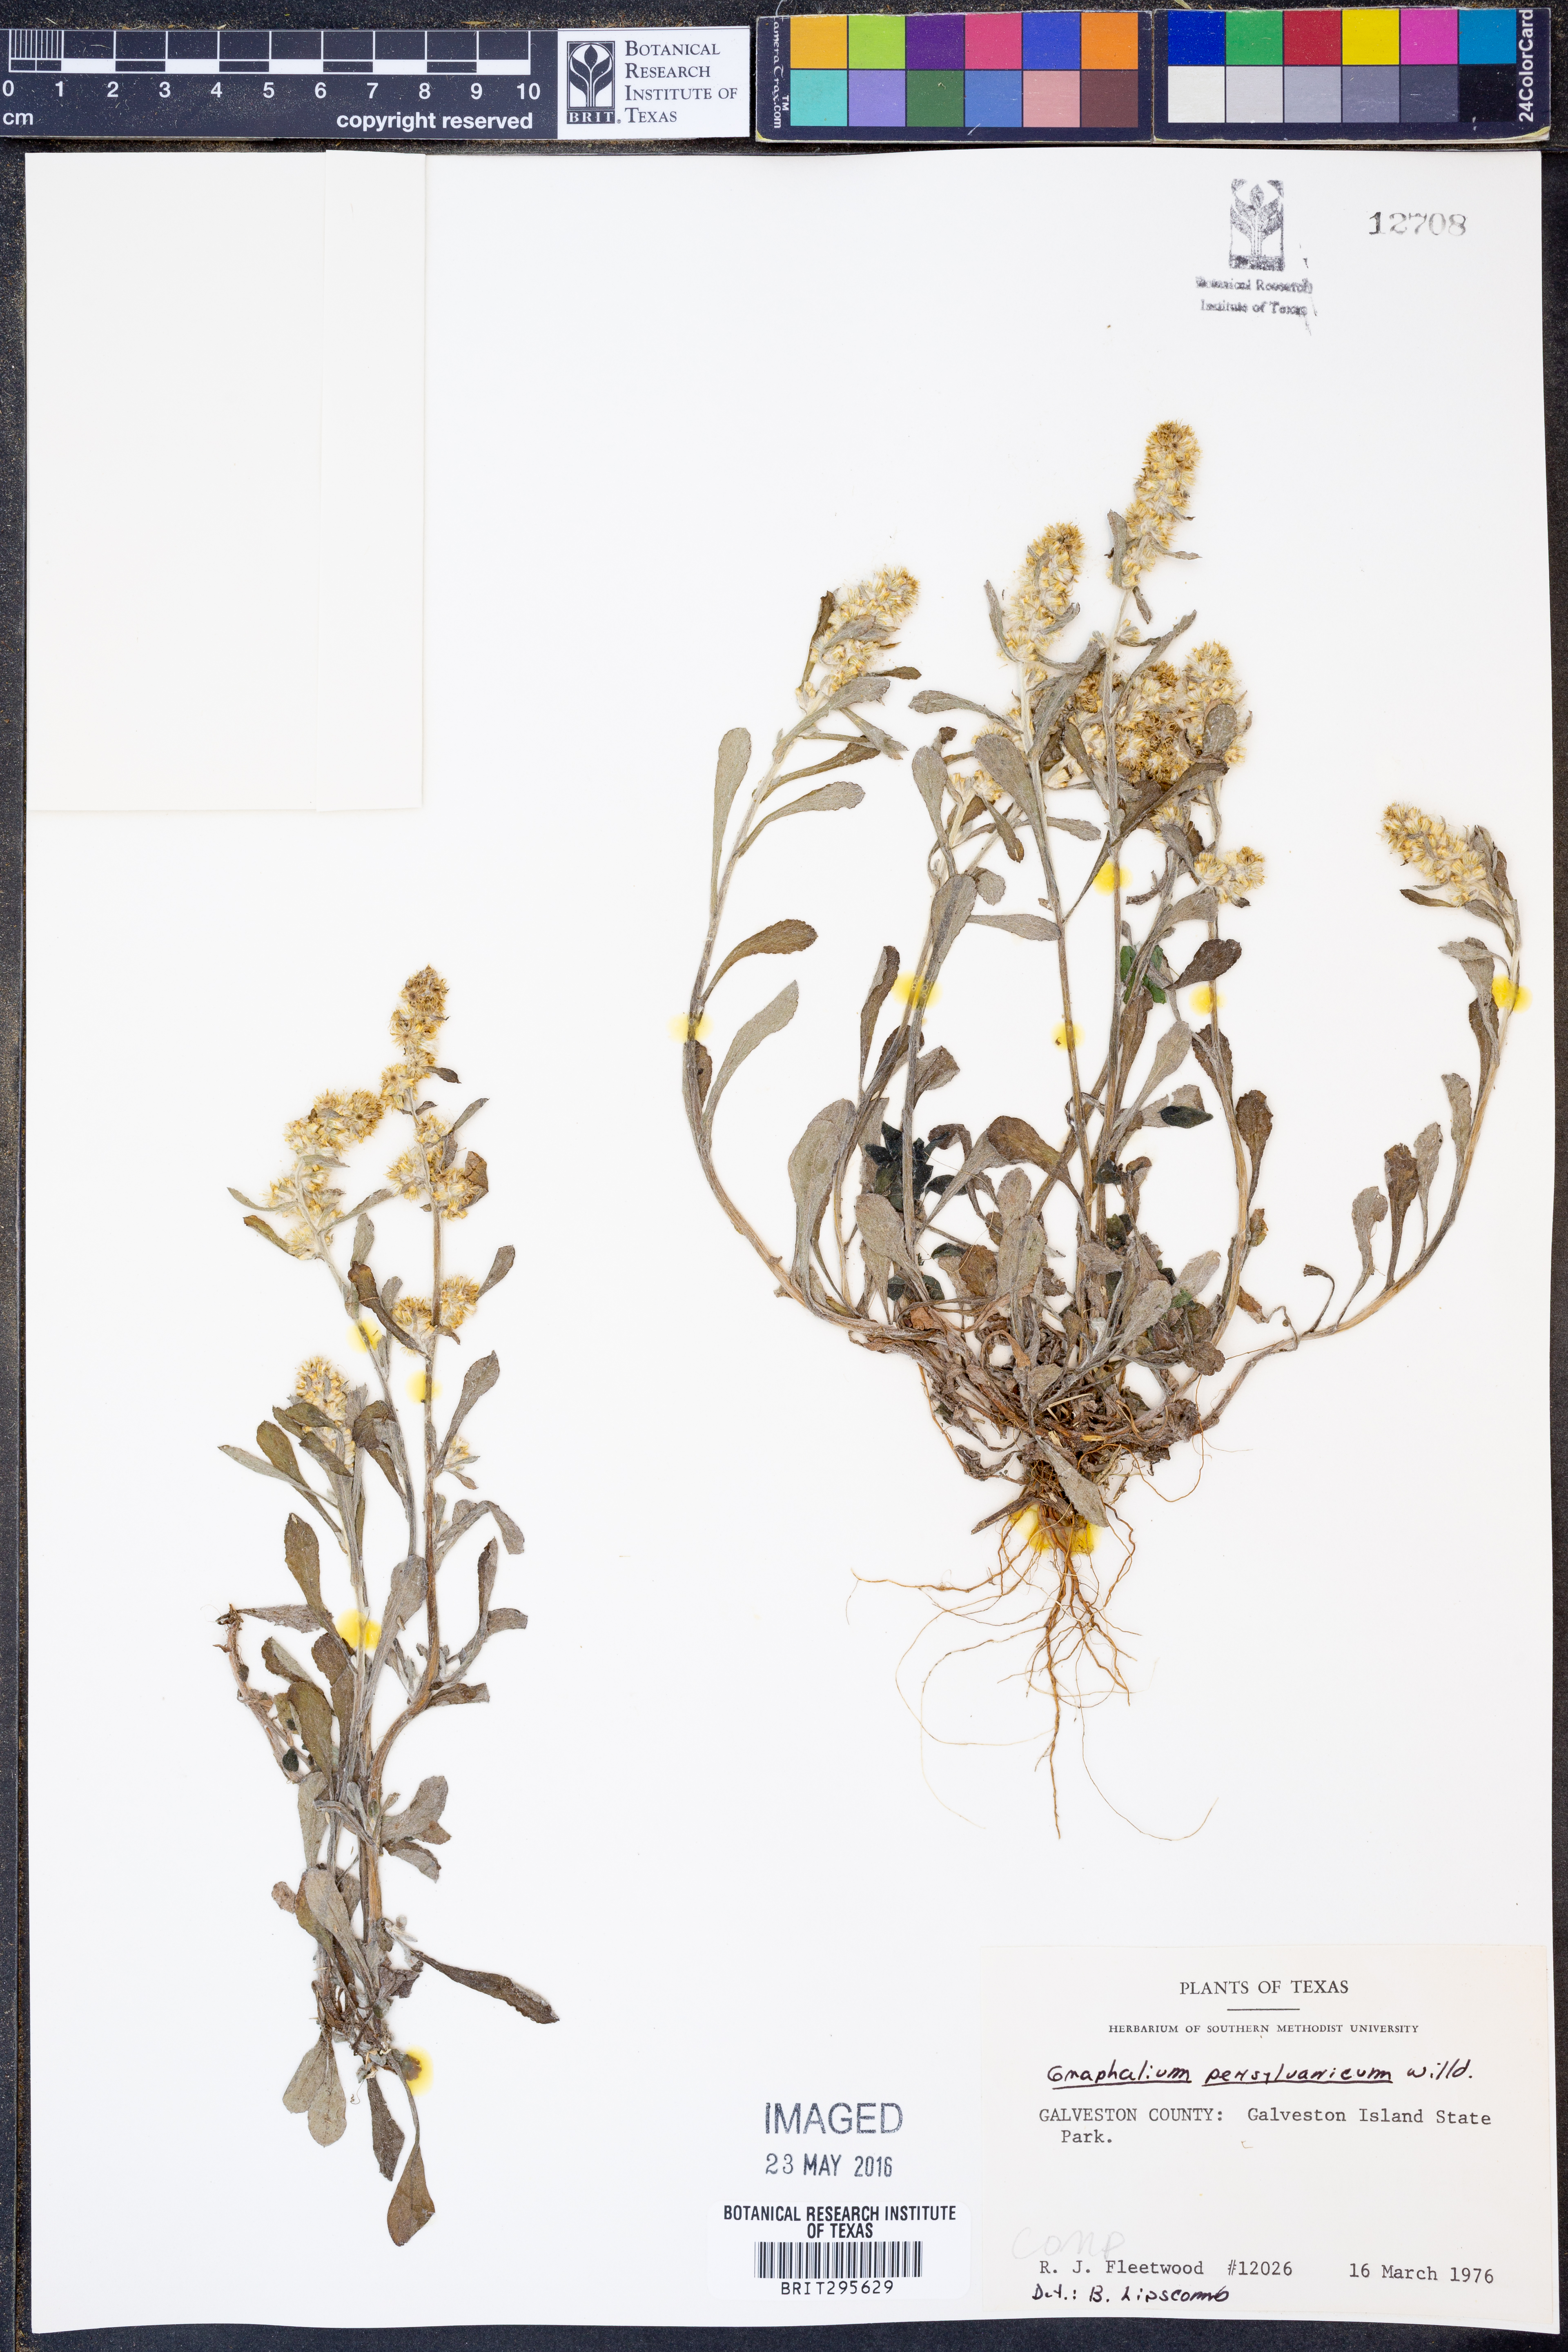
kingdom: Plantae
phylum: Tracheophyta
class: Magnoliopsida
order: Asterales
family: Asteraceae
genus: Gamochaeta
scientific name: Gamochaeta pensylvanica
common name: Pennsylvania everlasting
